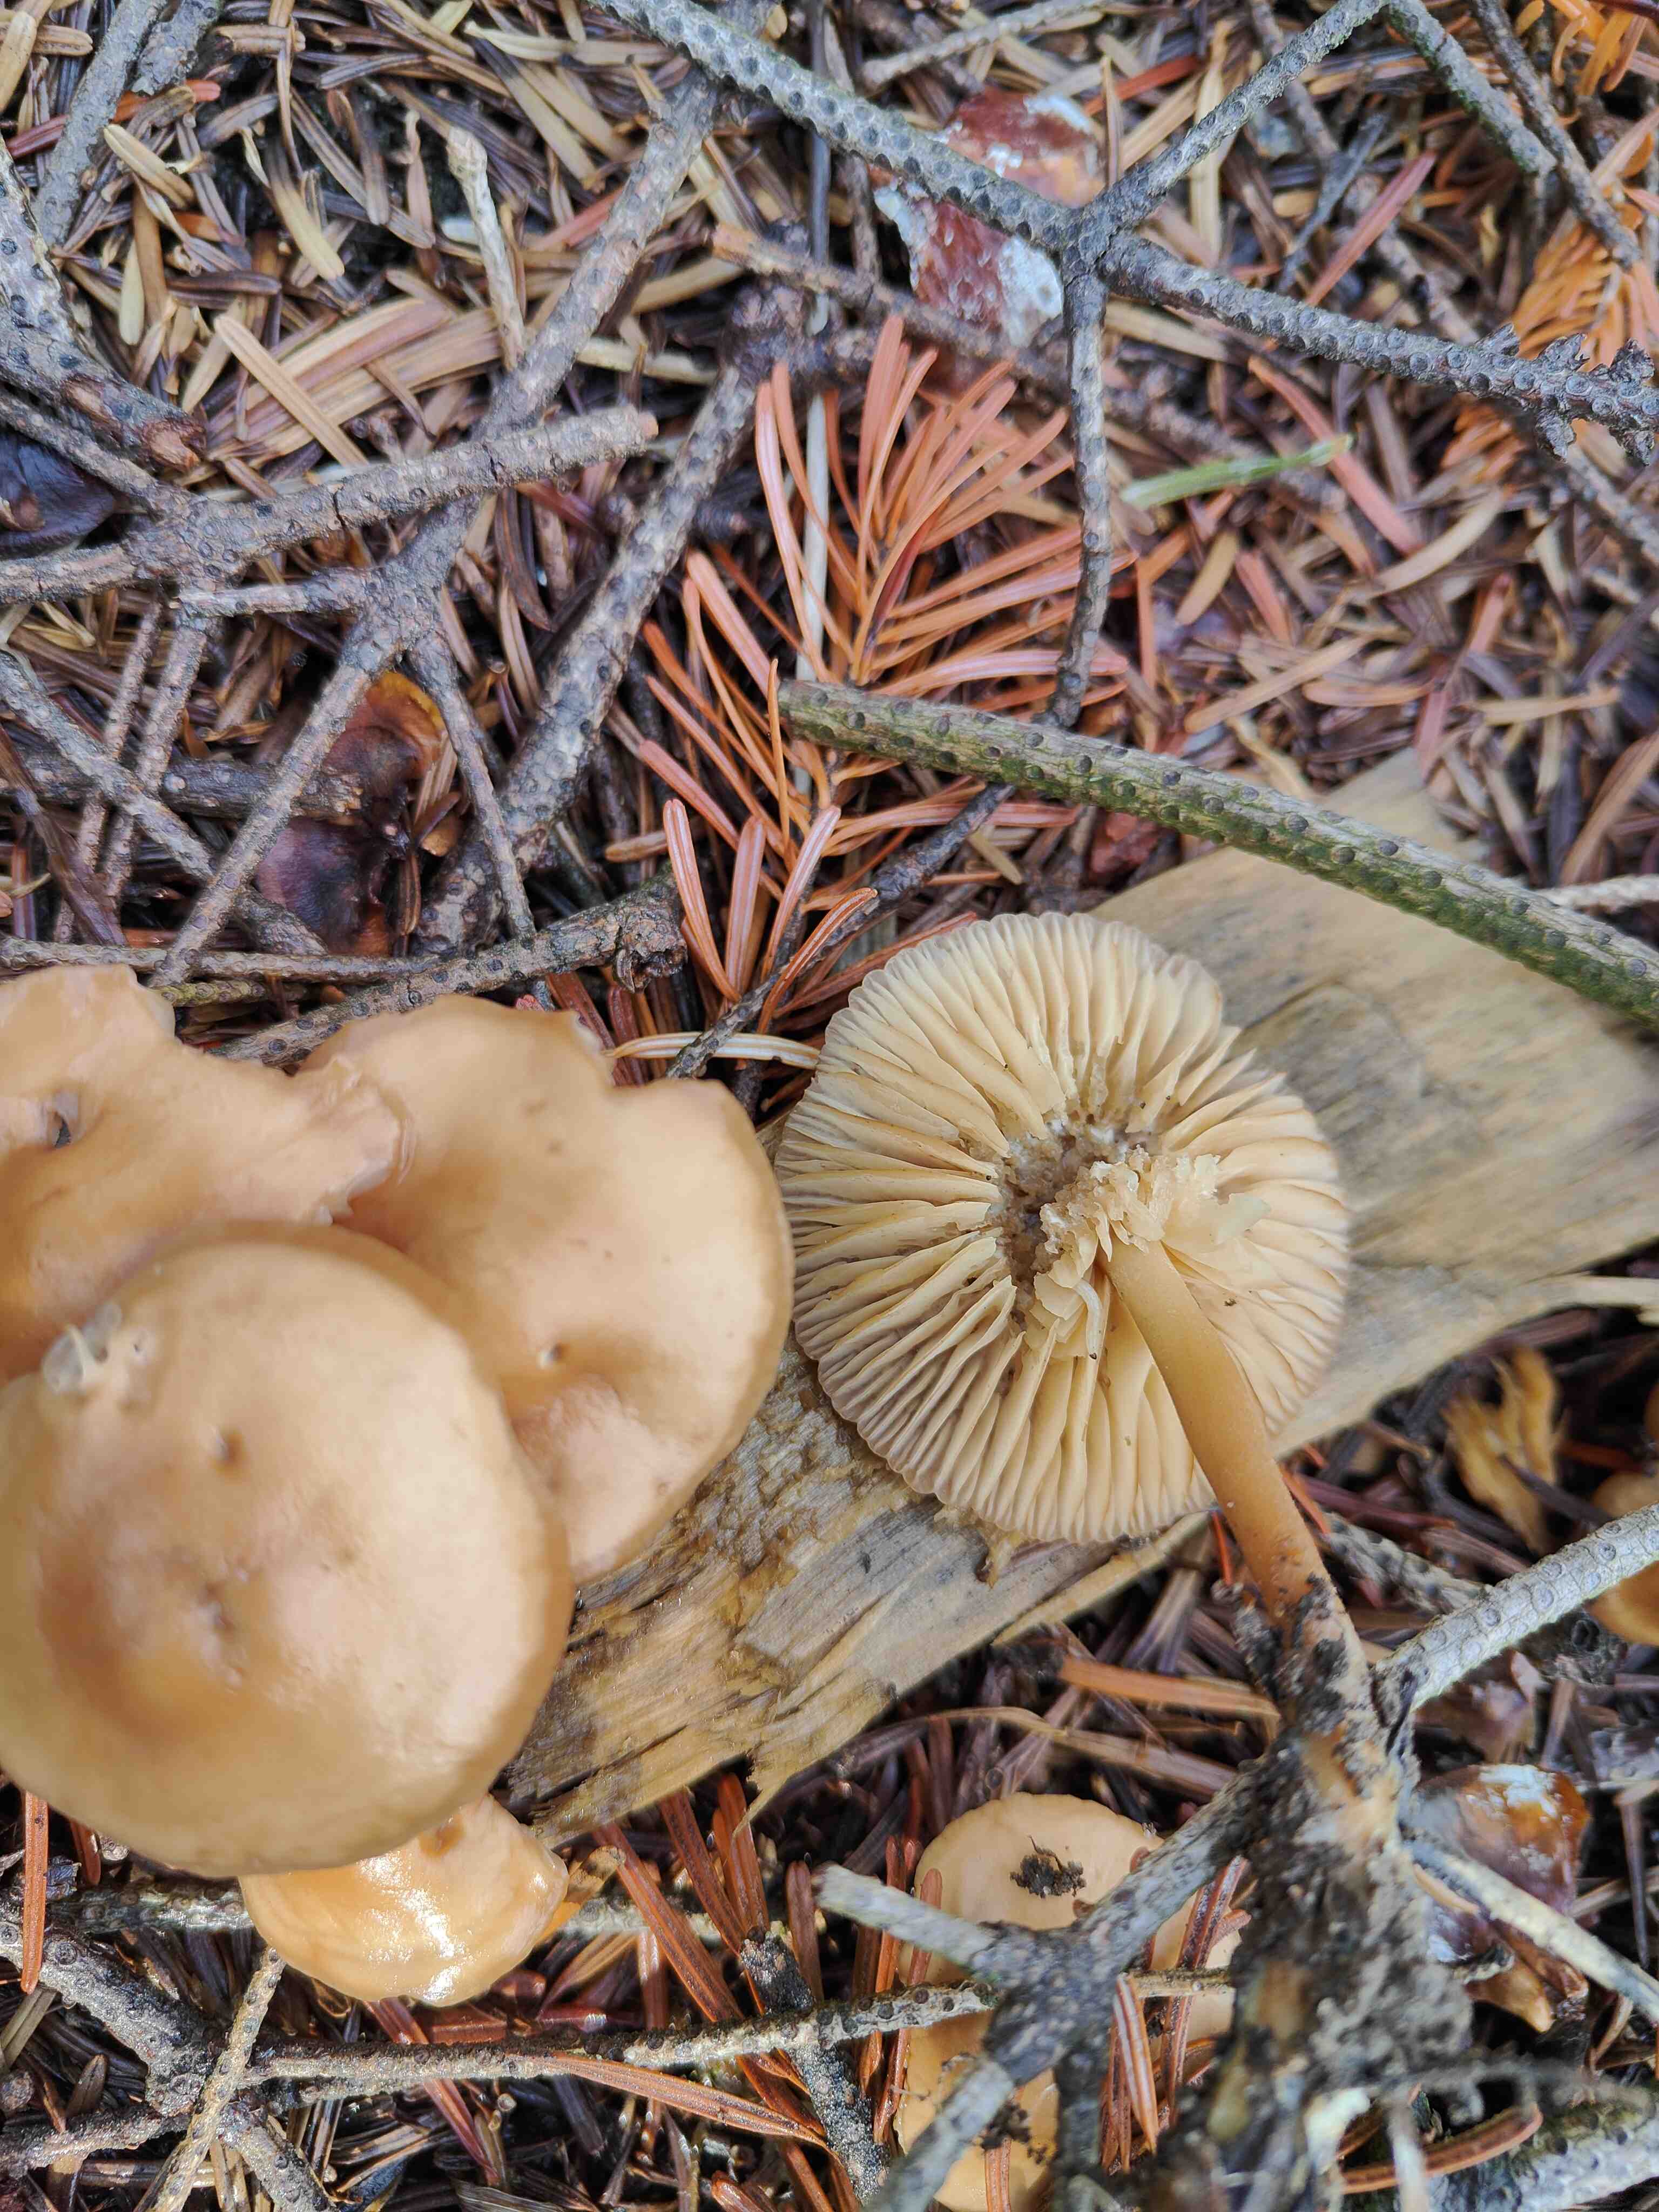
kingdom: Fungi
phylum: Basidiomycota
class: Agaricomycetes
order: Agaricales
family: Marasmiaceae
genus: Marasmius
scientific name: Marasmius oreades
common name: elledans-bruskhat
